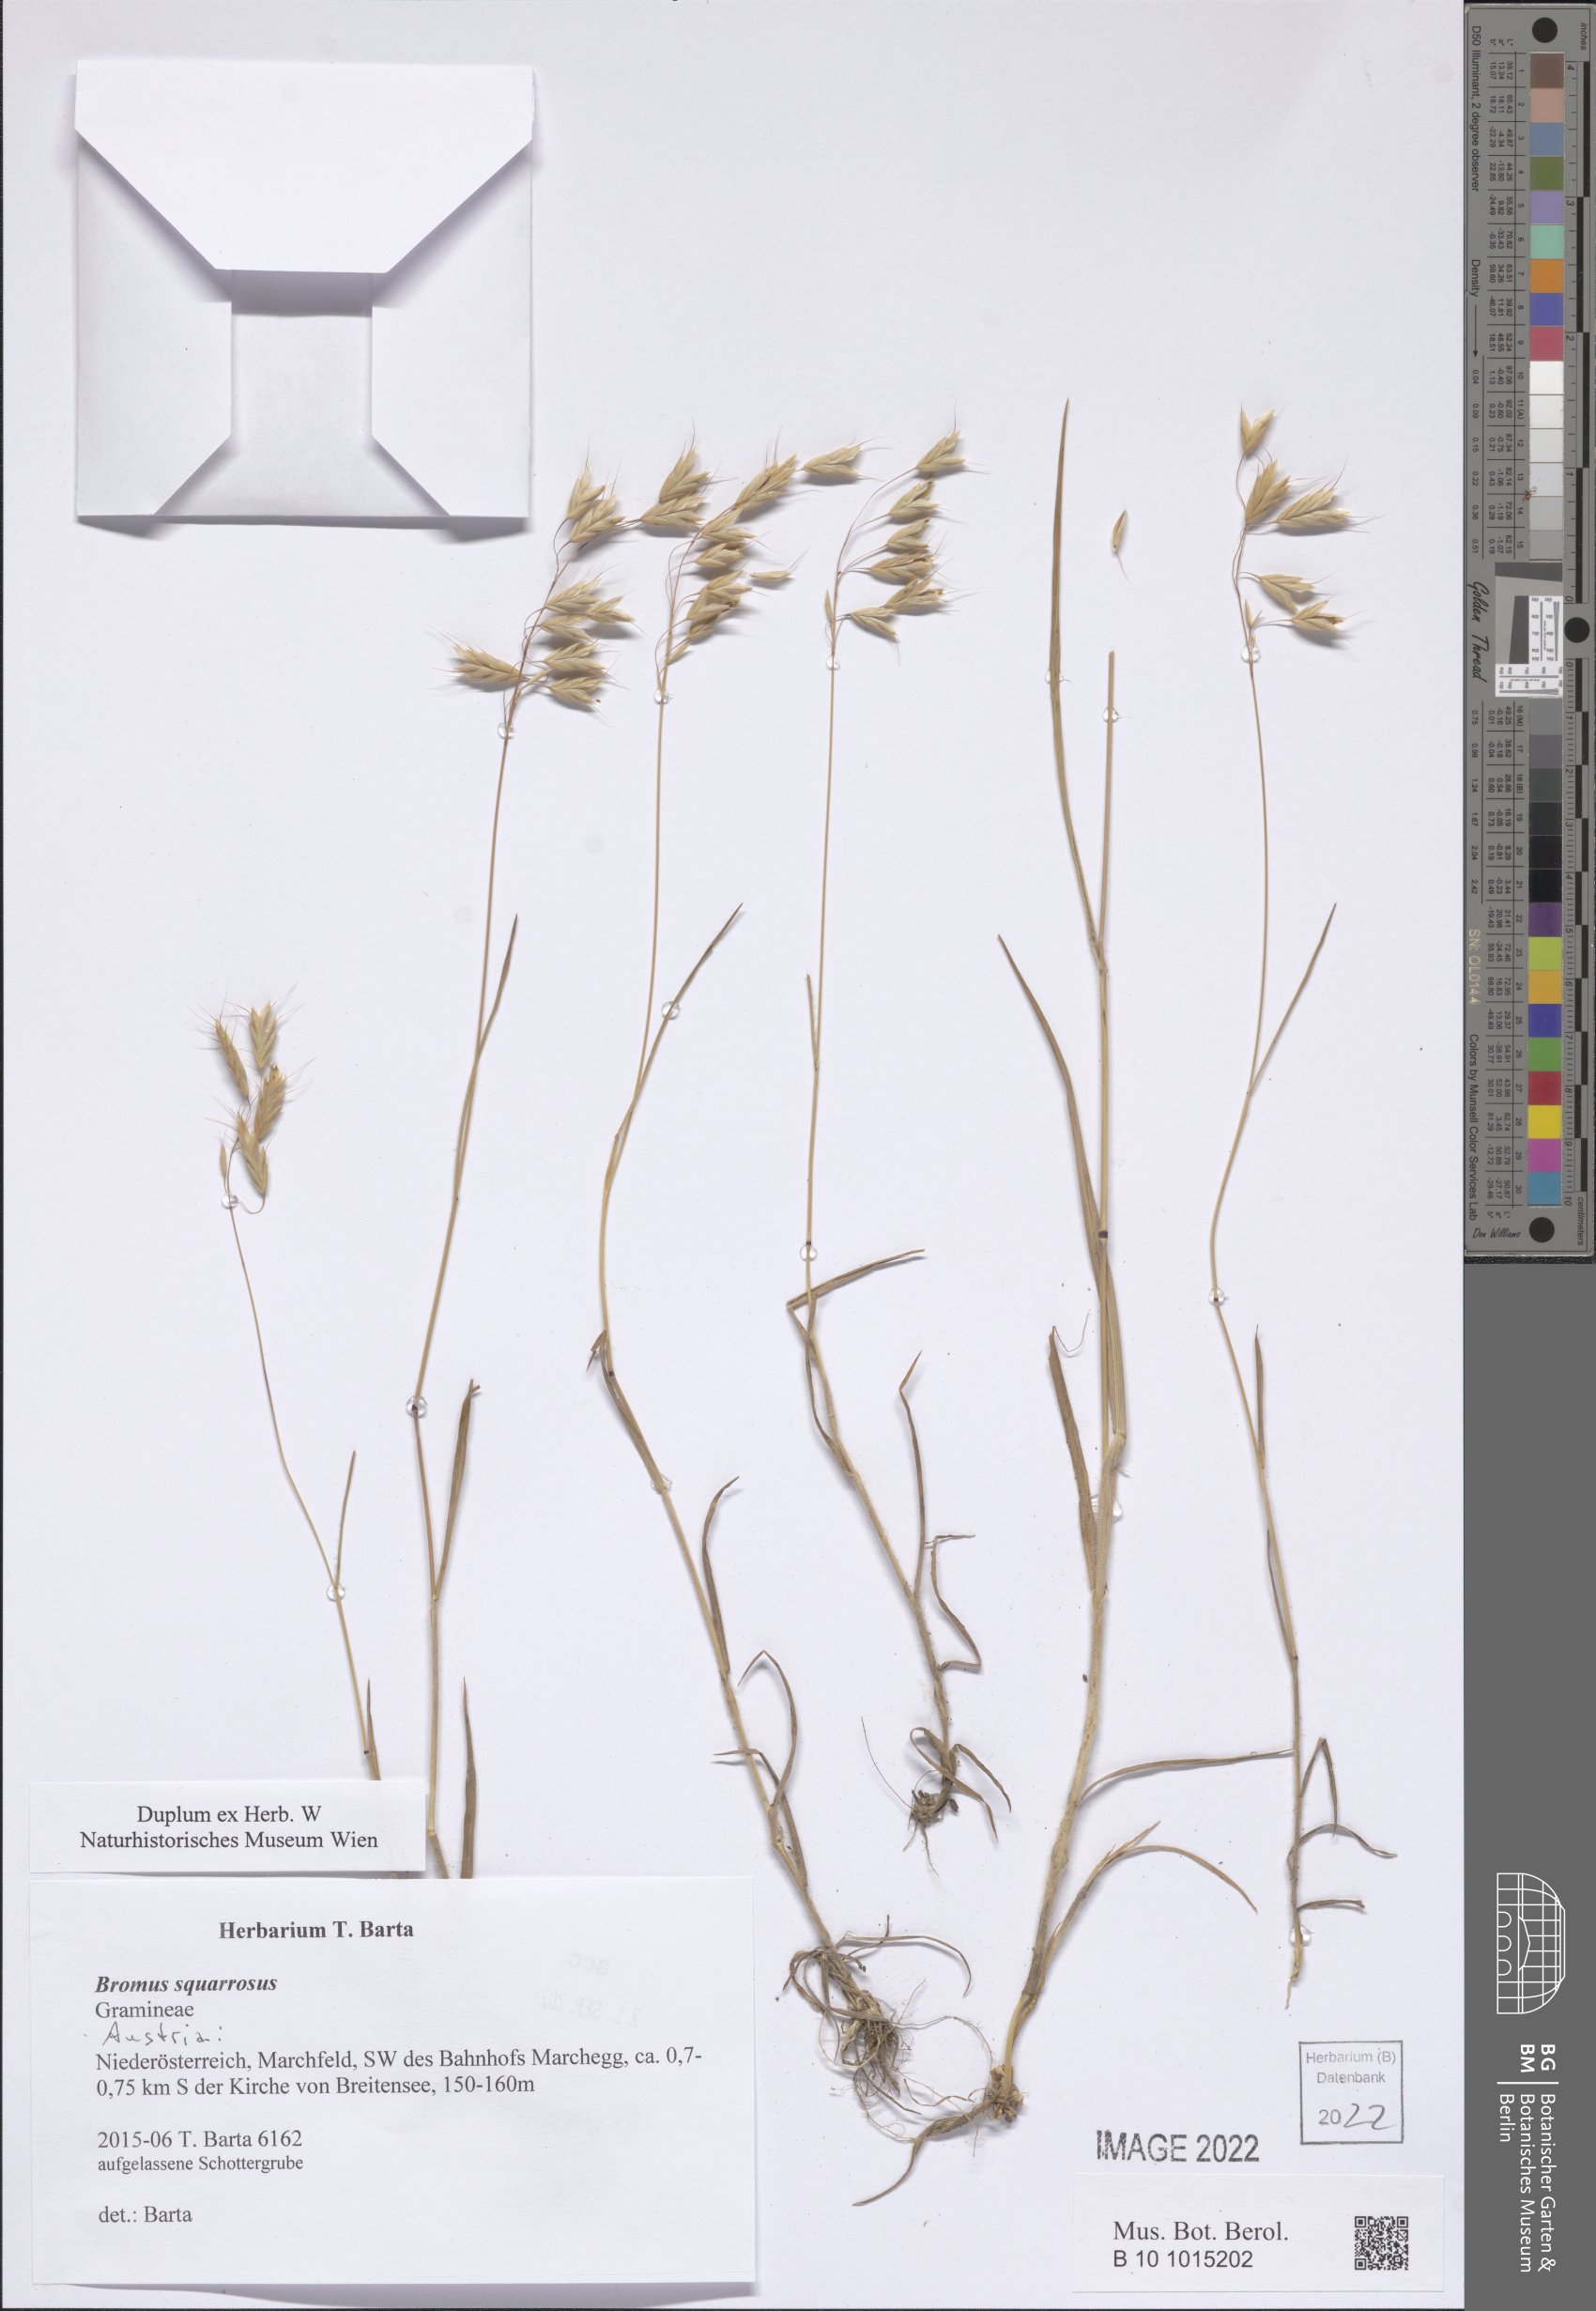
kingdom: Plantae
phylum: Tracheophyta
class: Liliopsida
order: Poales
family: Poaceae
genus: Bromus
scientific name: Bromus squarrosus
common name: Corn brome
